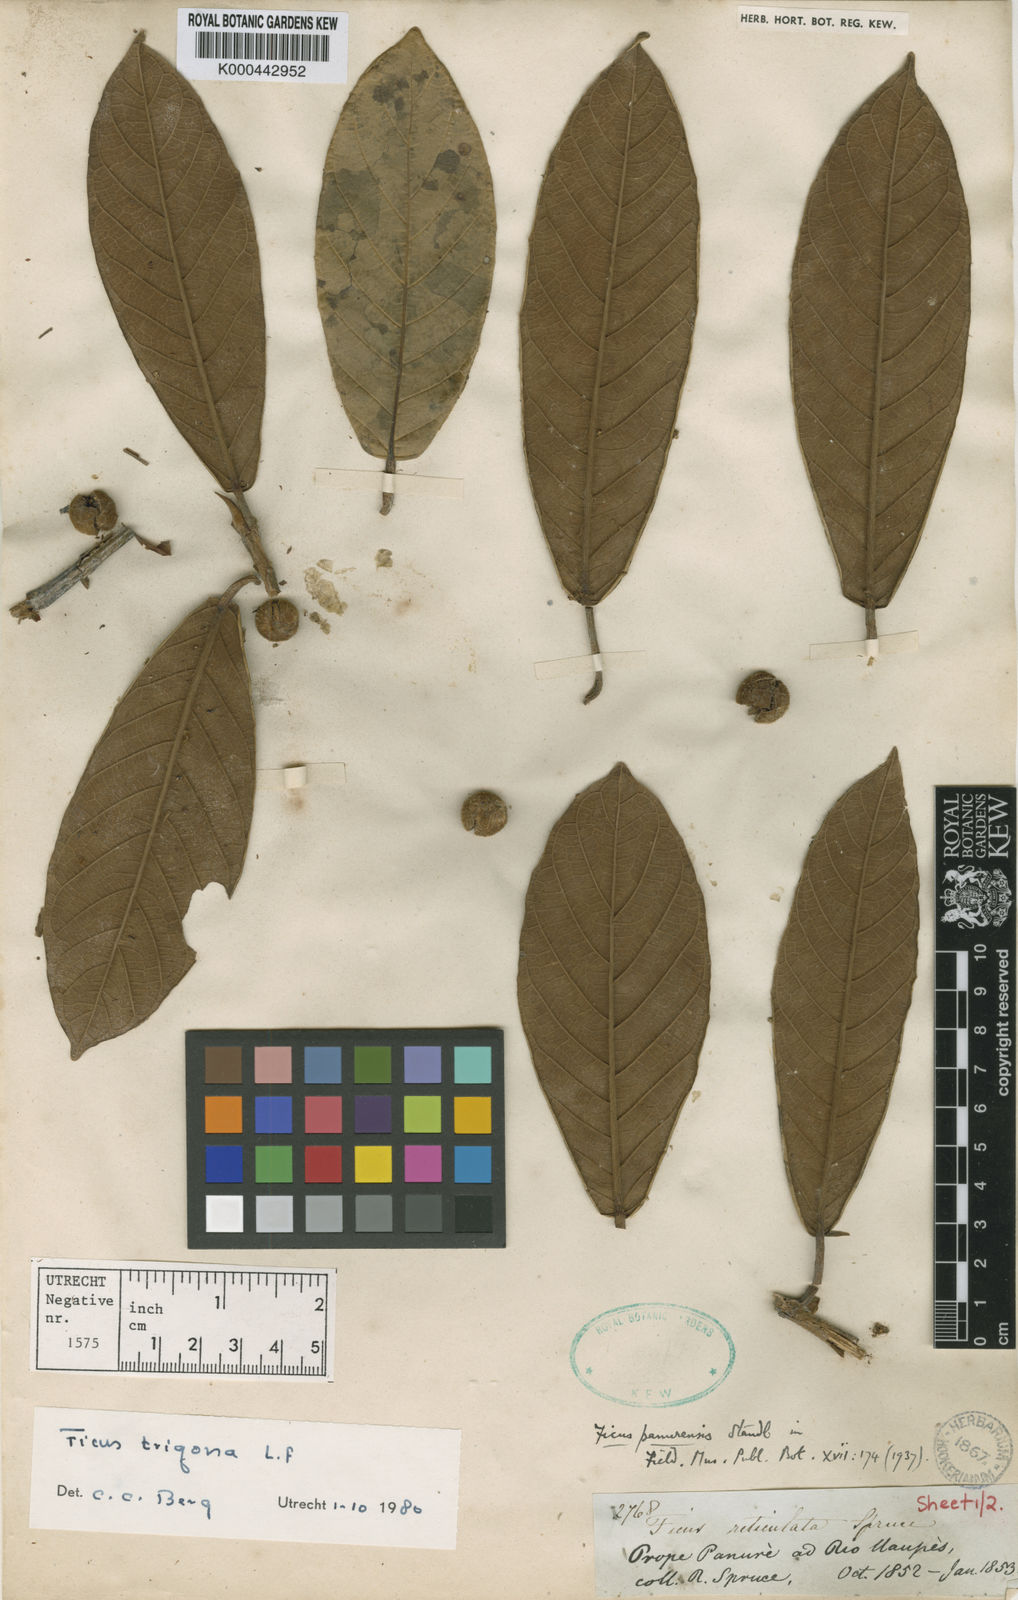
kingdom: Plantae
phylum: Tracheophyta
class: Magnoliopsida
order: Rosales
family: Moraceae
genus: Ficus
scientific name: Ficus trigona
